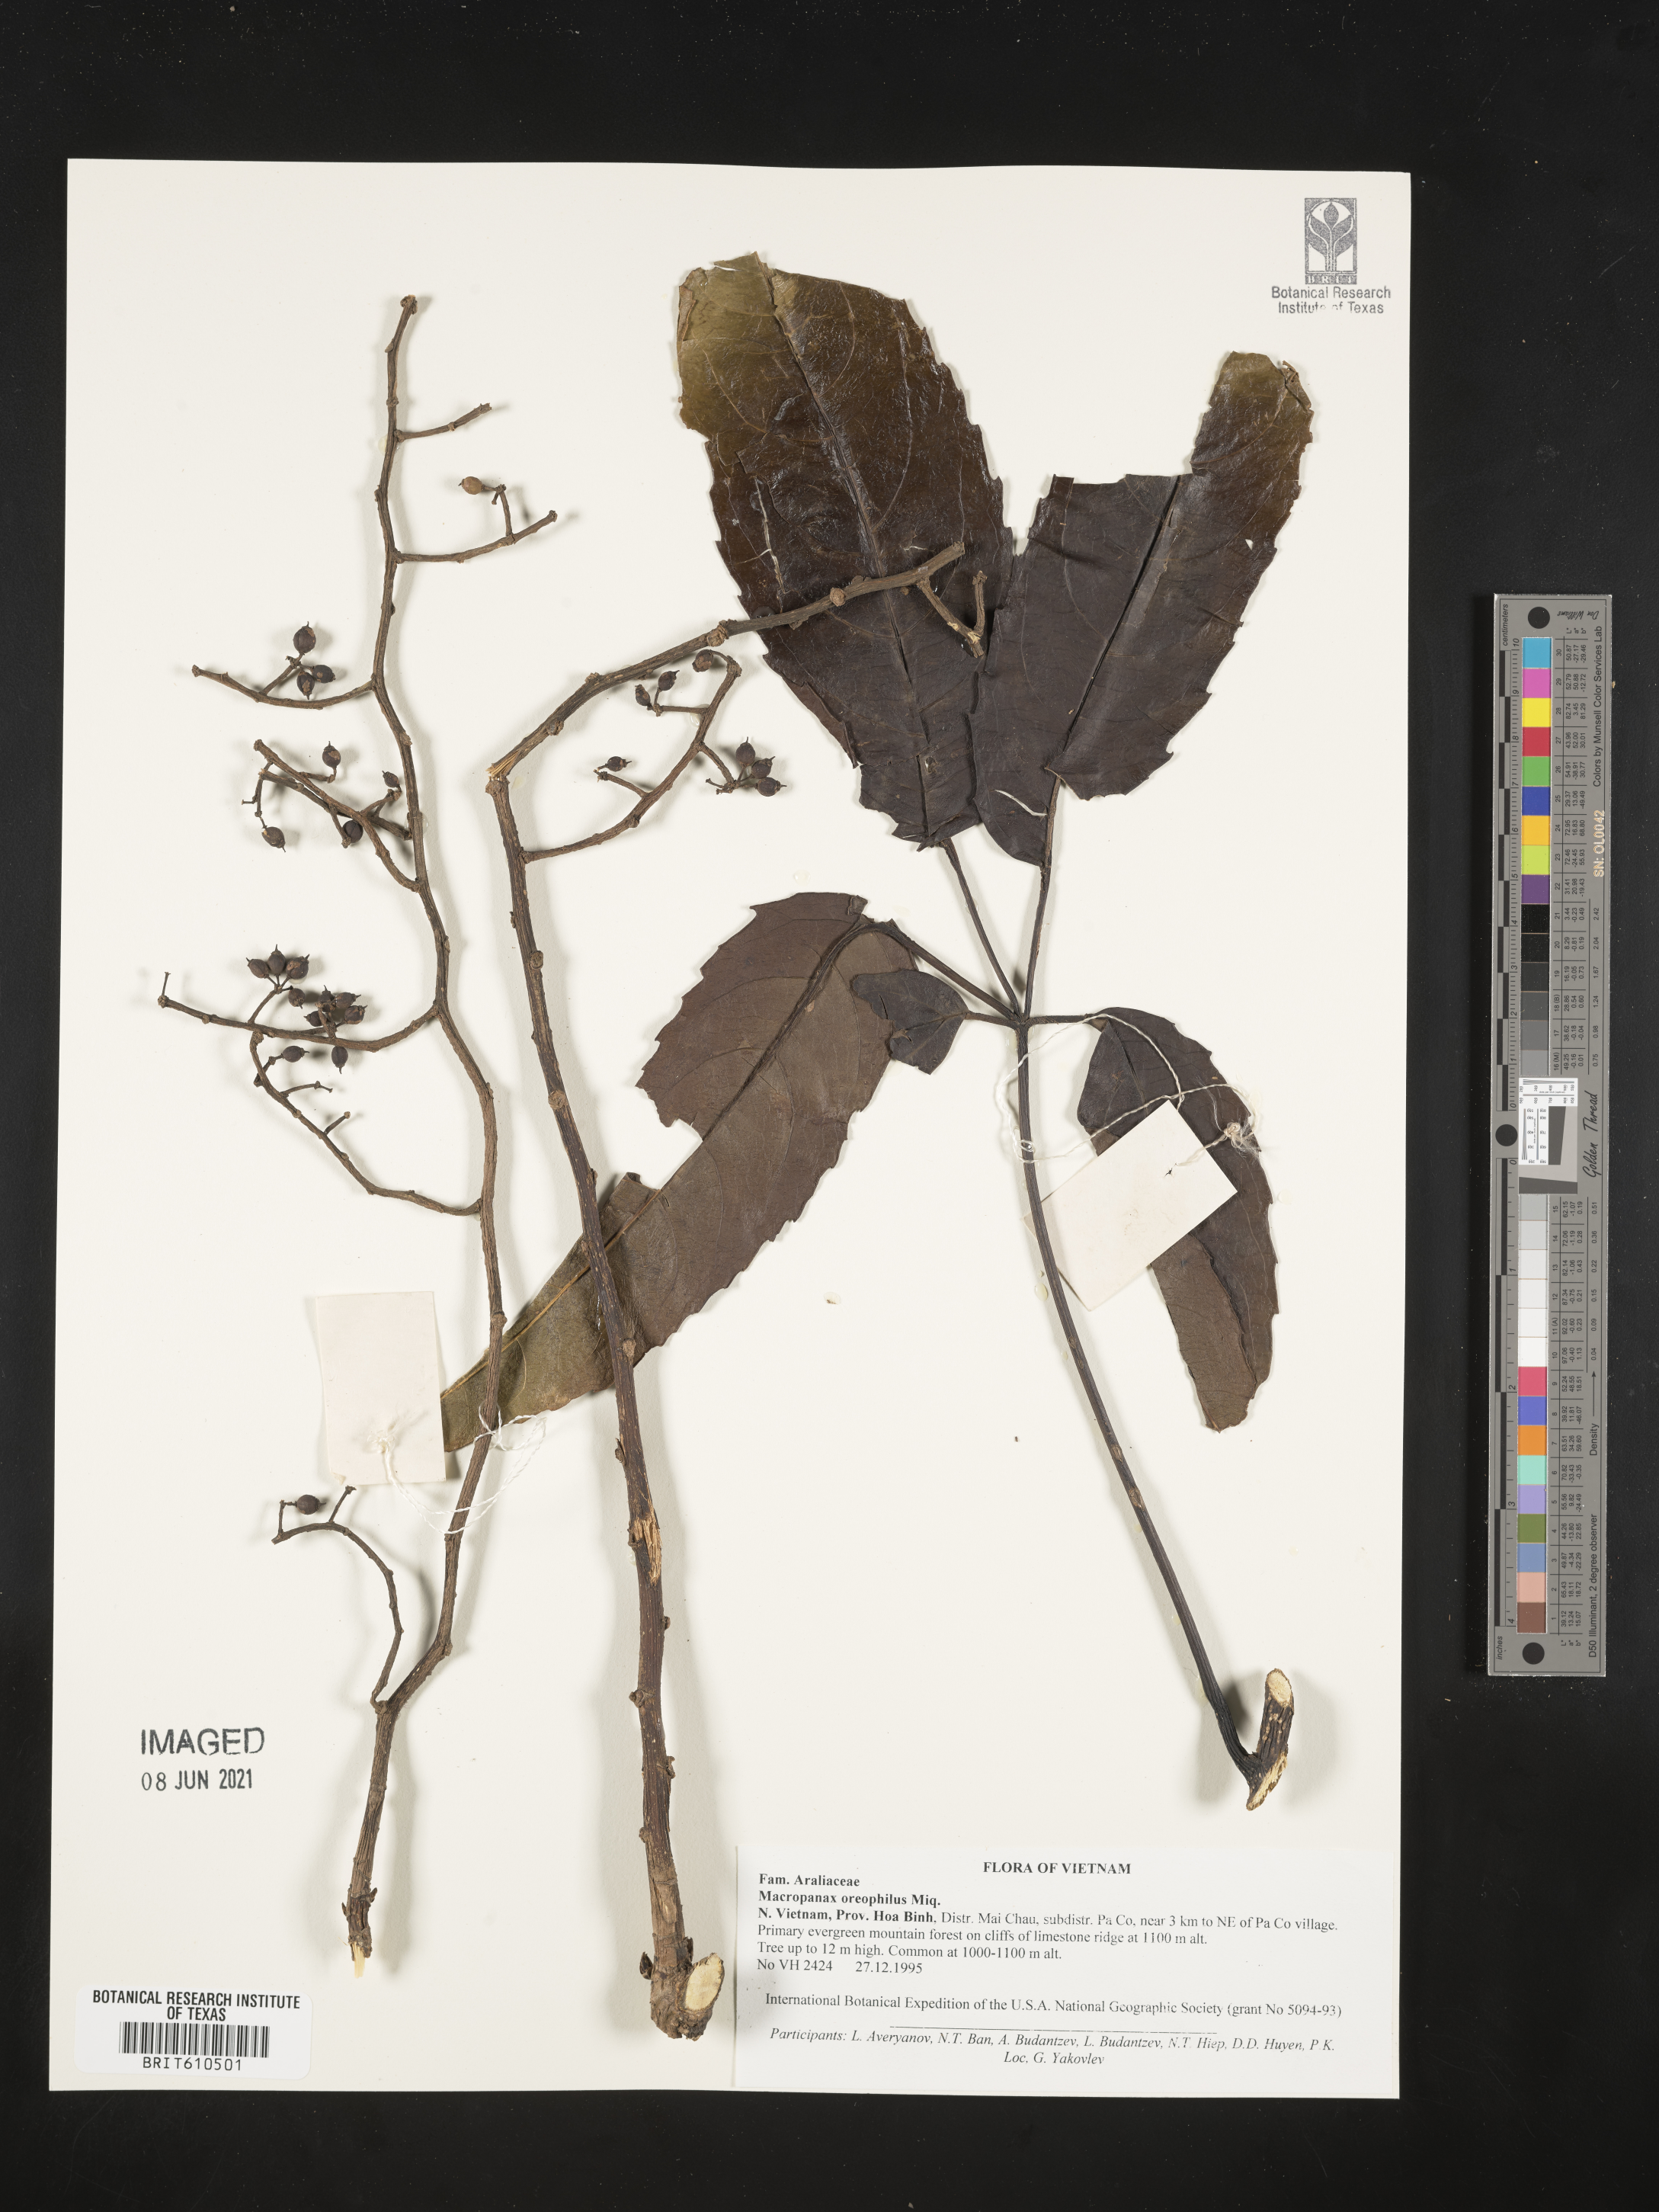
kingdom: Plantae
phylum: Tracheophyta
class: Magnoliopsida
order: Apiales
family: Araliaceae
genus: Macropanax
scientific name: Macropanax dispermus
